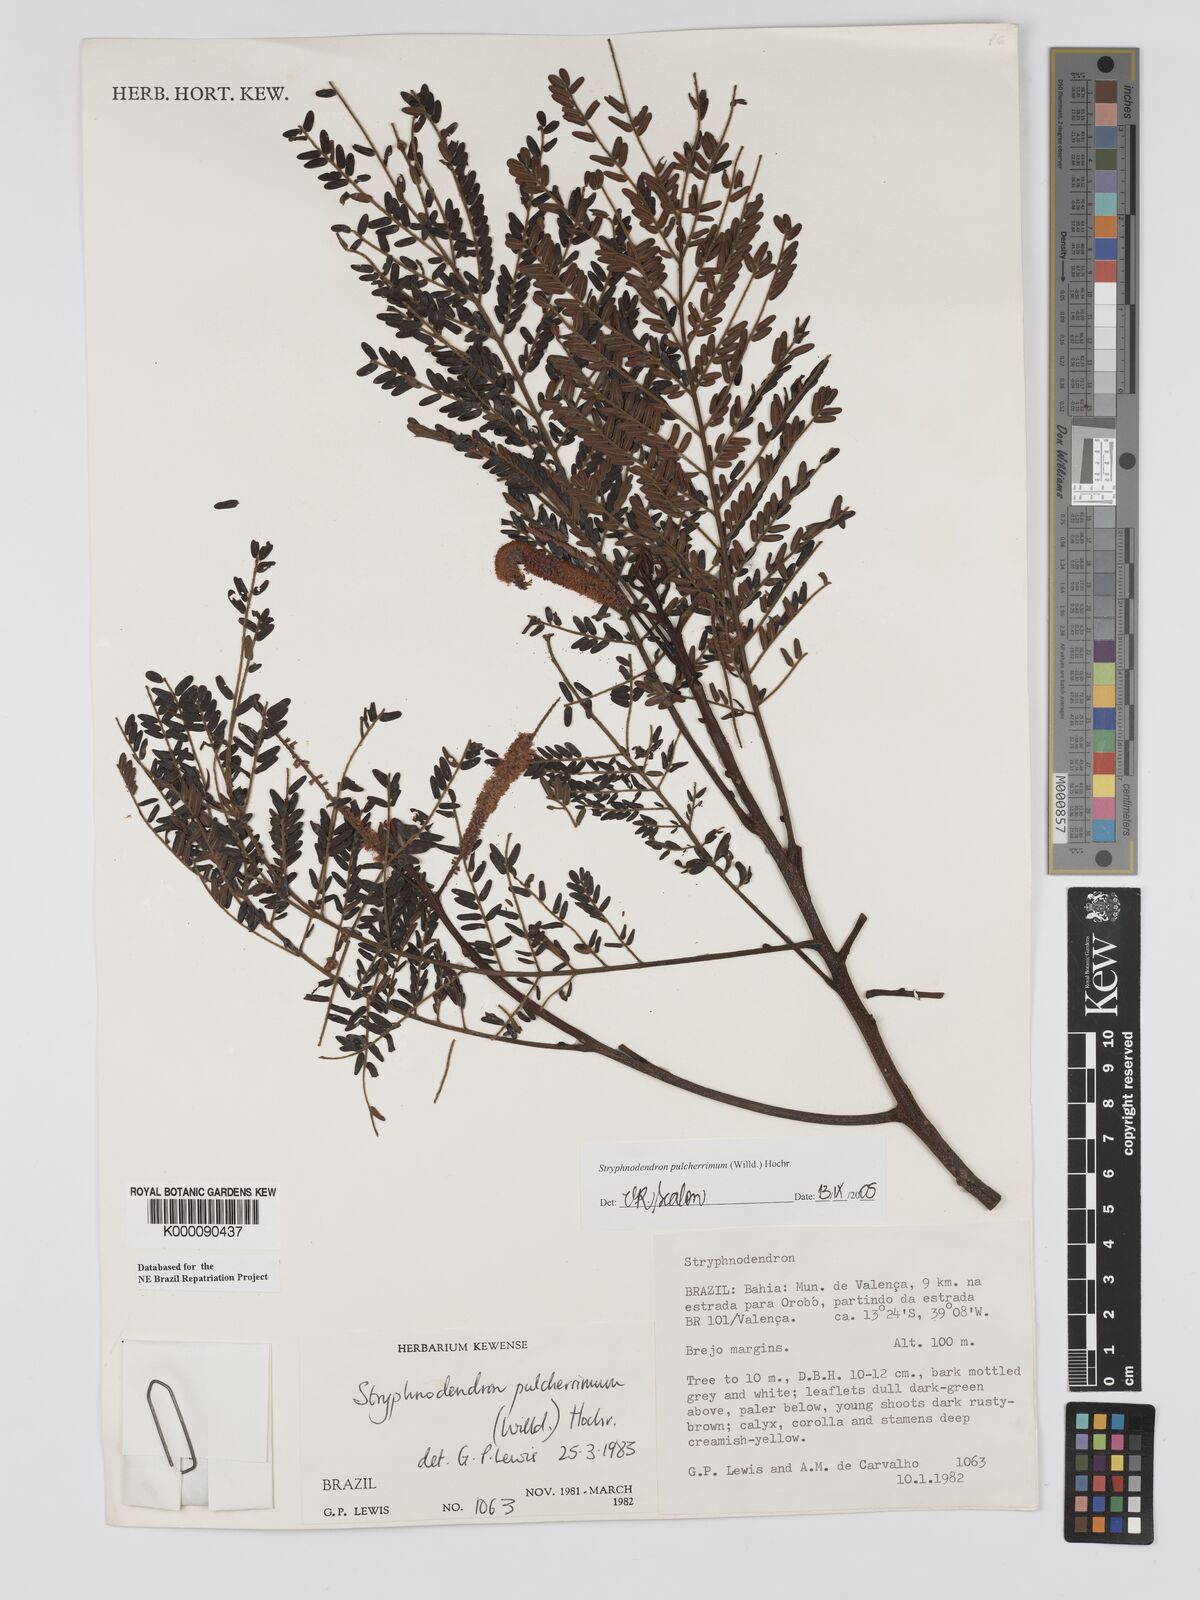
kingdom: Plantae
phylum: Tracheophyta
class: Magnoliopsida
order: Fabales
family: Fabaceae
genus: Stryphnodendron
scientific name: Stryphnodendron pulcherrimum
